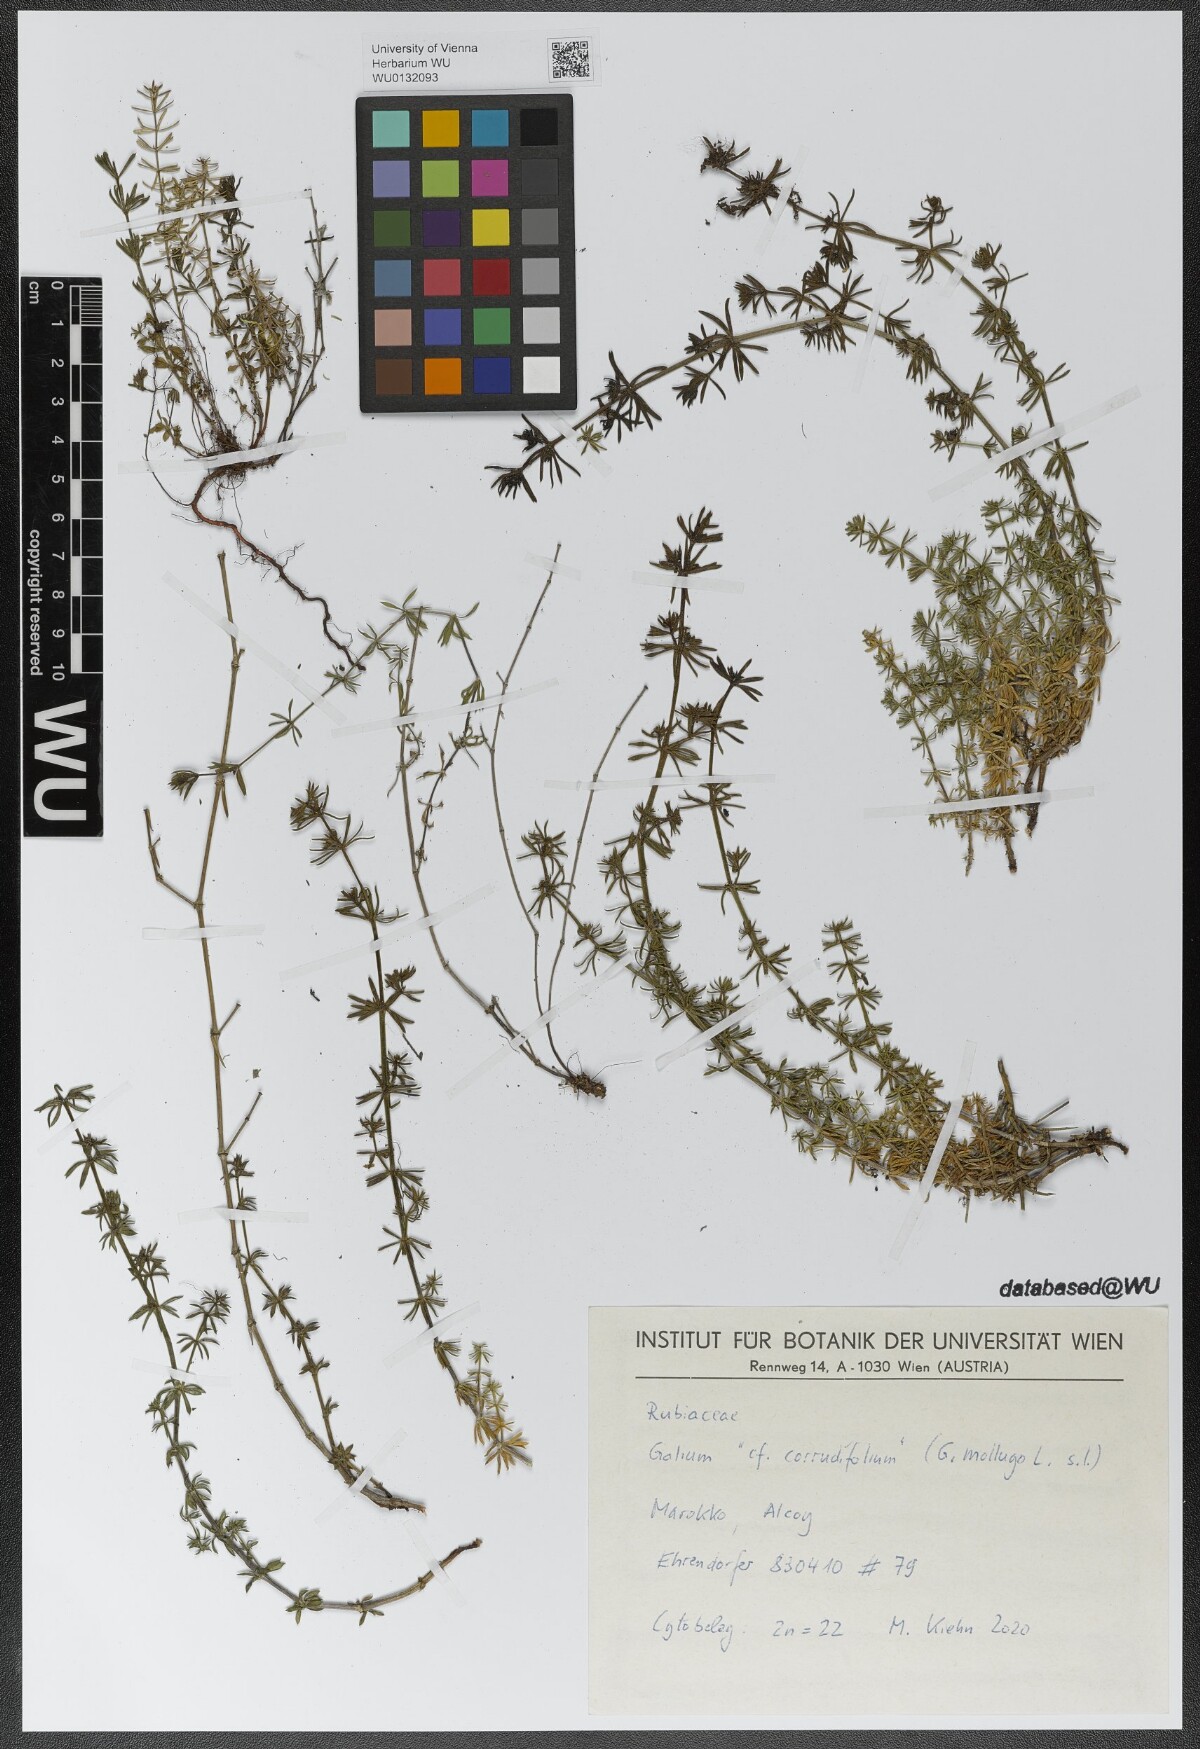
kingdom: Plantae
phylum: Tracheophyta
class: Magnoliopsida
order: Gentianales
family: Rubiaceae
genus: Galium
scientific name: Galium lucidum
